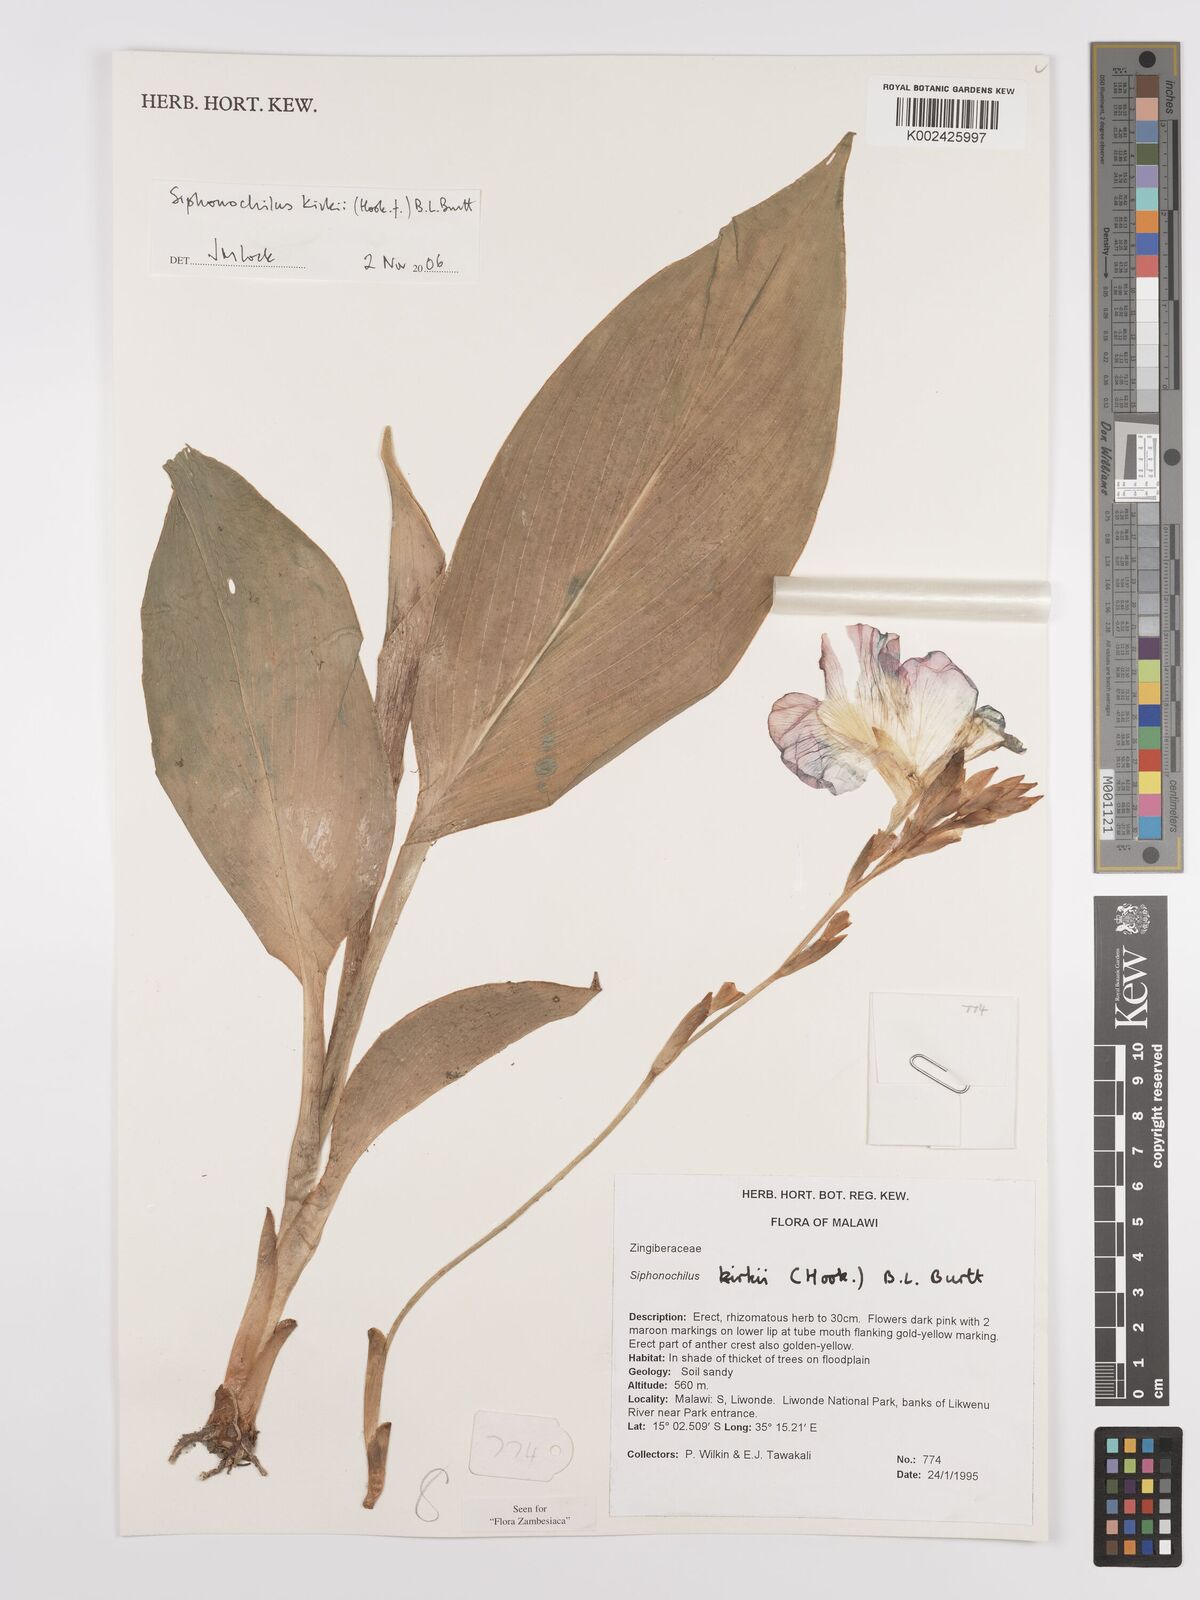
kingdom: Plantae
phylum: Tracheophyta
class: Liliopsida
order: Zingiberales
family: Zingiberaceae
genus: Siphonochilus
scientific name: Siphonochilus kirkii
